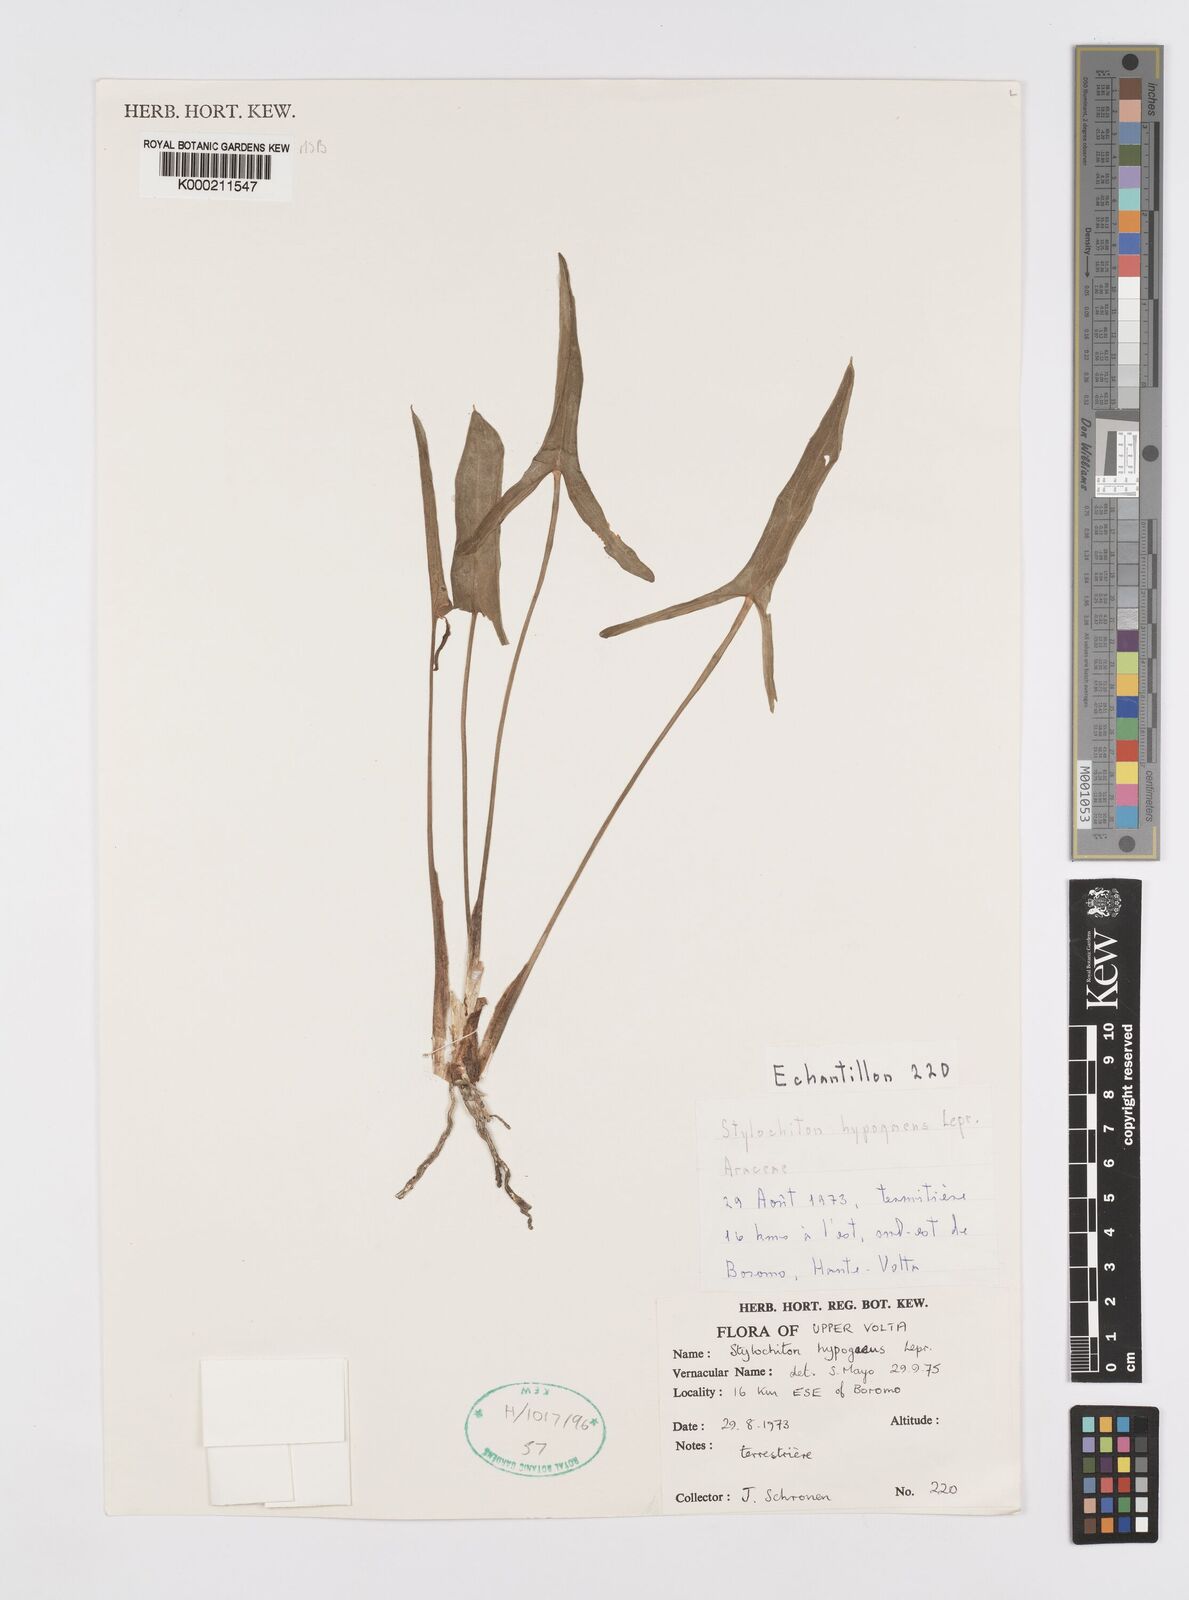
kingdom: Plantae
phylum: Tracheophyta
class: Liliopsida
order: Alismatales
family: Araceae
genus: Stylochaeton
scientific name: Stylochaeton
